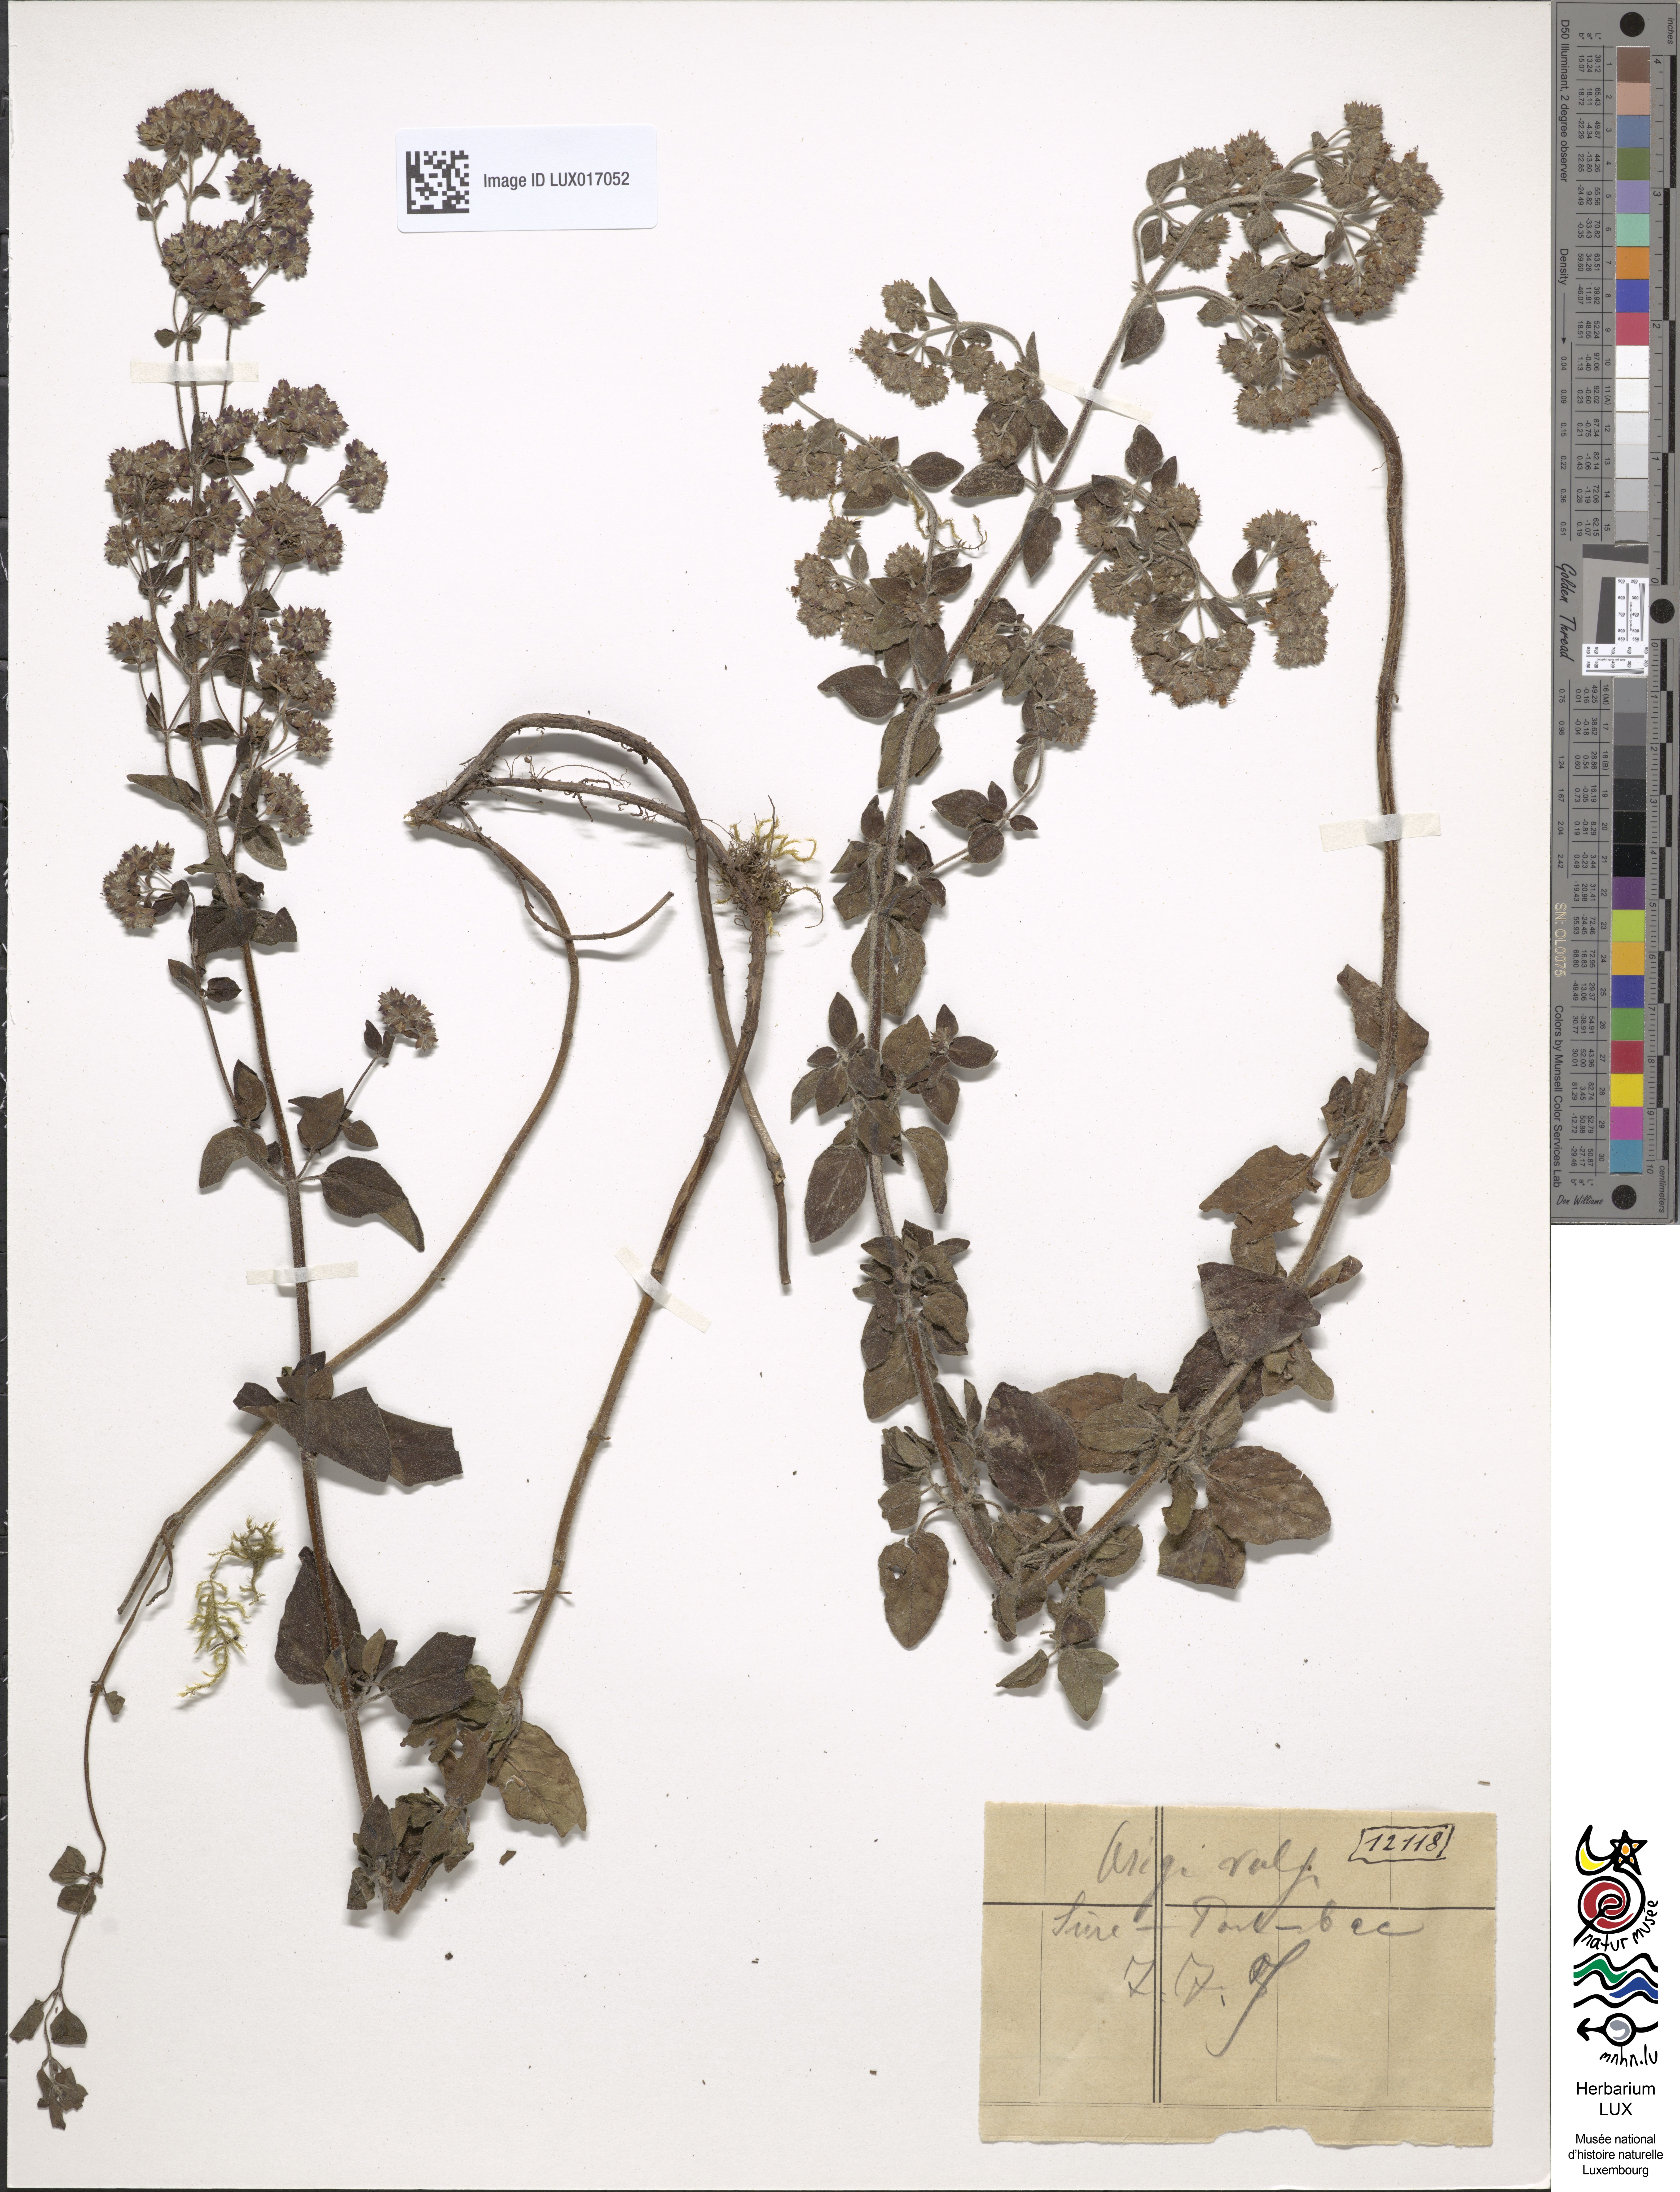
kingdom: Plantae
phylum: Tracheophyta
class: Magnoliopsida
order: Lamiales
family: Lamiaceae
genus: Origanum
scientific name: Origanum vulgare
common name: Wild marjoram
